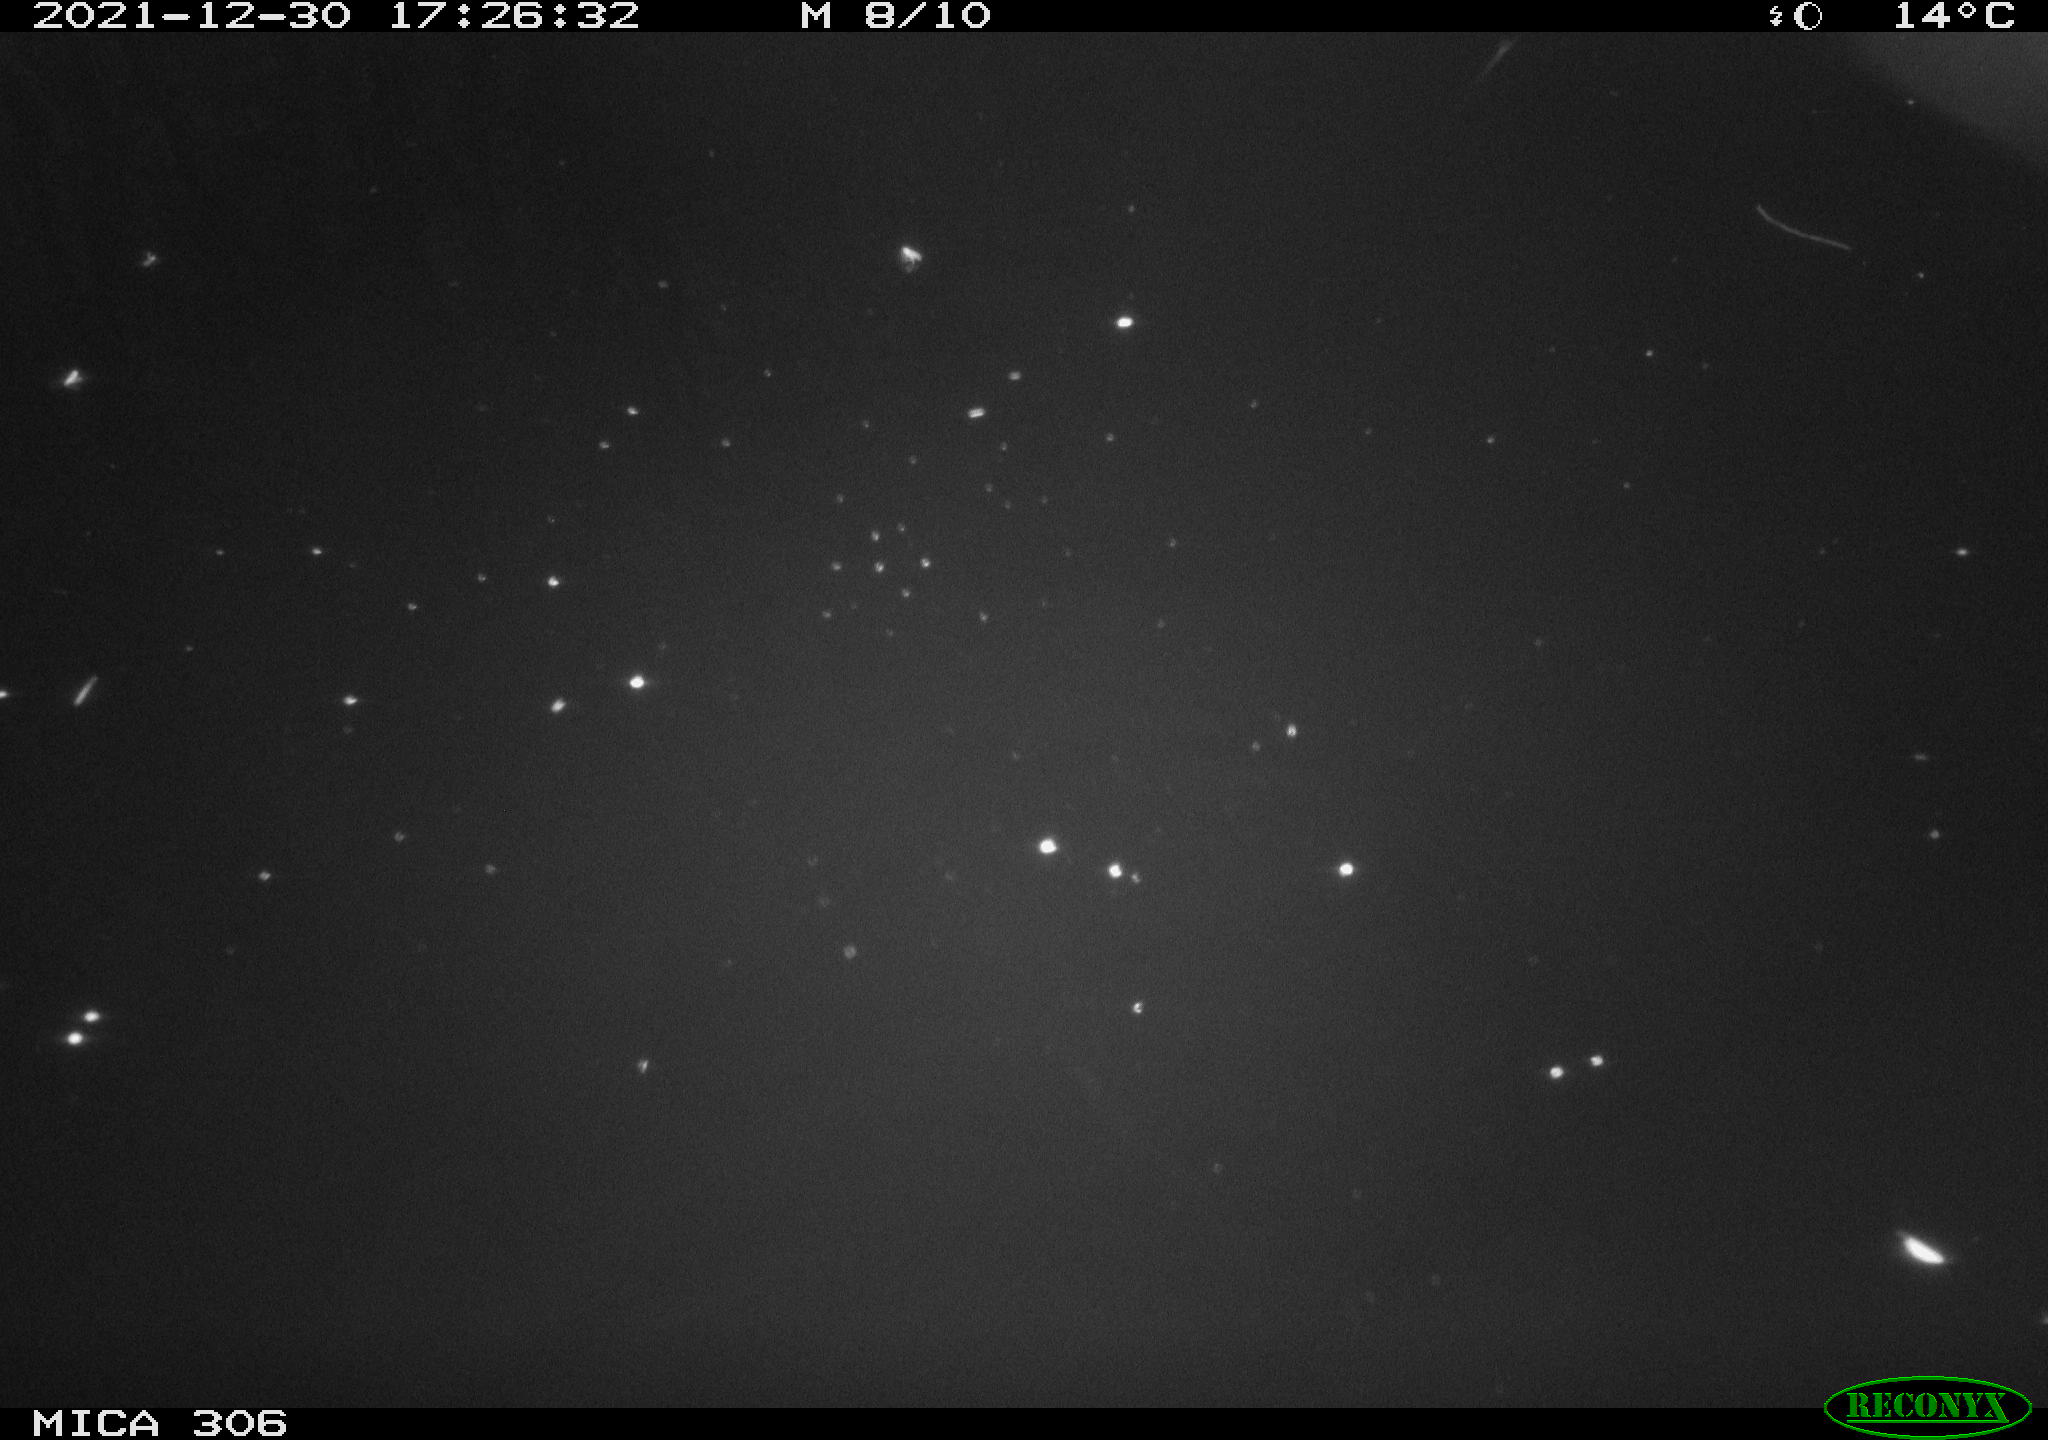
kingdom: Animalia
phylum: Chordata
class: Aves
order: Anseriformes
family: Anatidae
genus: Anas
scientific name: Anas
